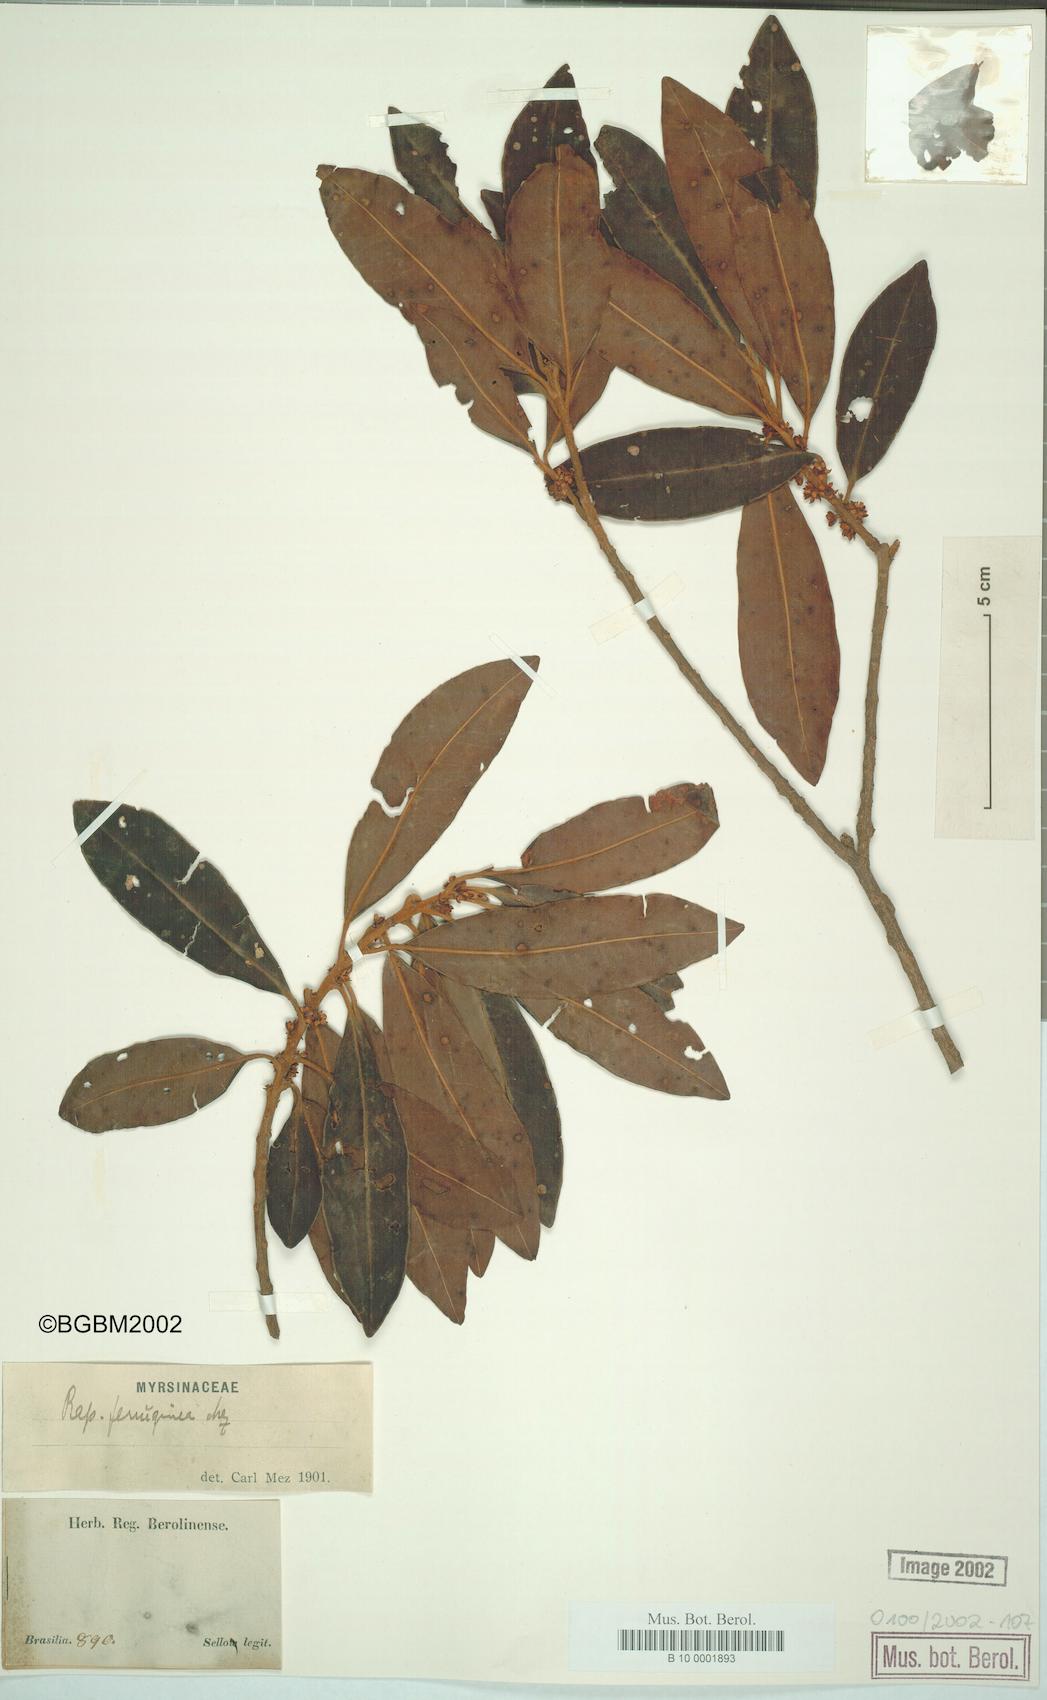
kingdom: Plantae
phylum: Tracheophyta
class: Magnoliopsida
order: Ericales
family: Primulaceae
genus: Myrsine
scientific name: Myrsine coriacea
